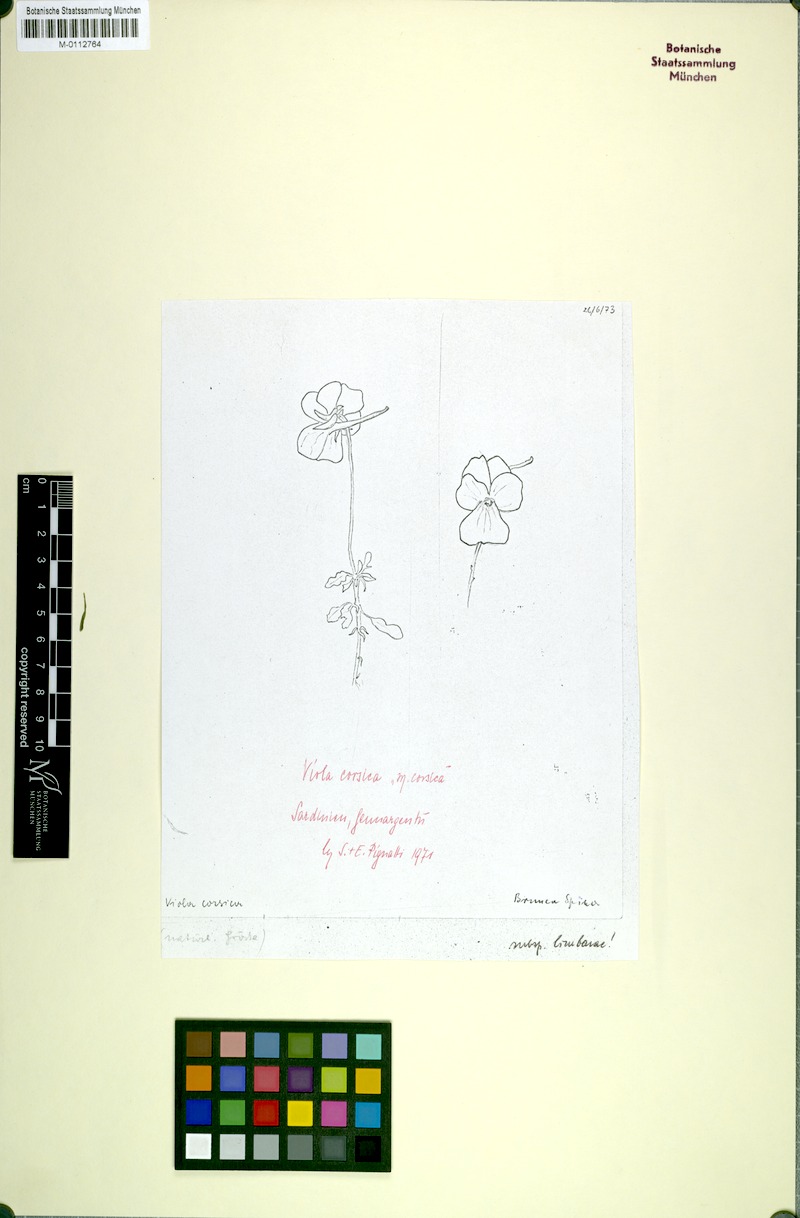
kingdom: Plantae
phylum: Tracheophyta
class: Magnoliopsida
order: Malpighiales
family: Violaceae
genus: Viola
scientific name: Viola corsica
